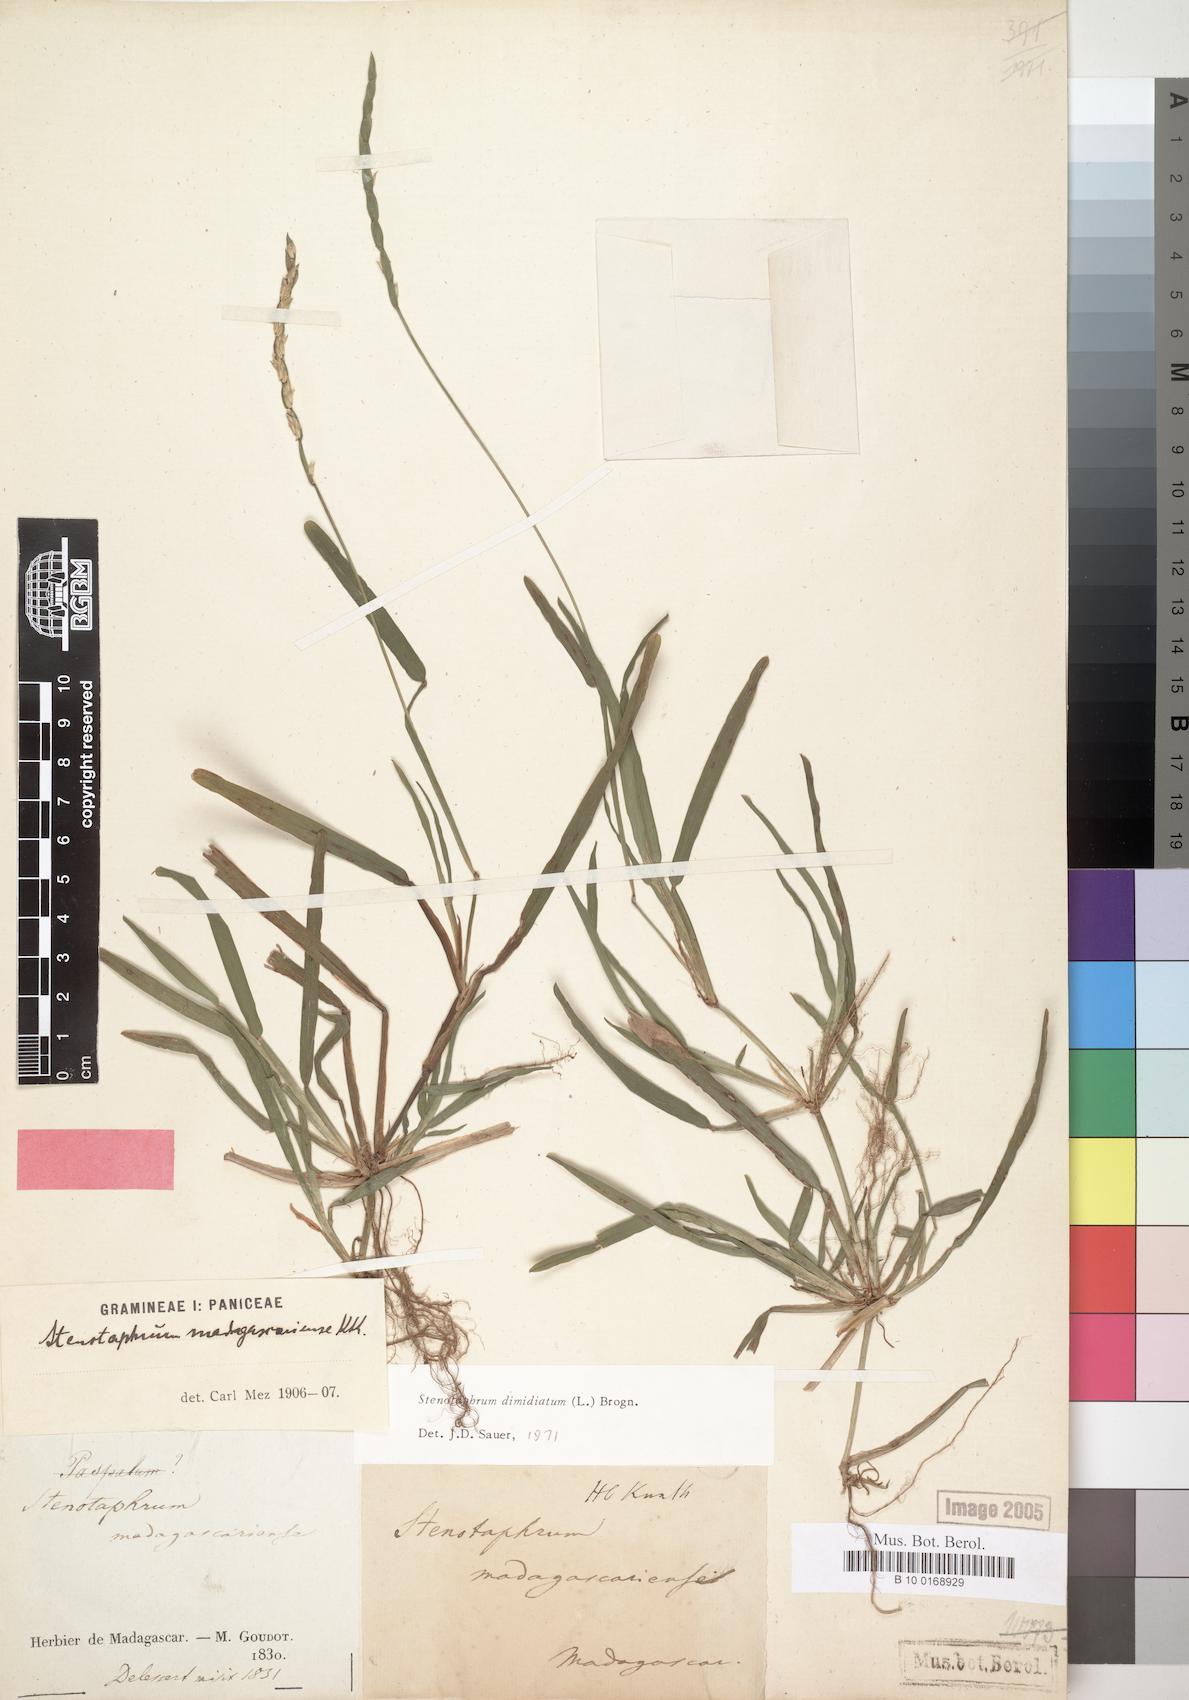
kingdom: Plantae
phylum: Tracheophyta
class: Liliopsida
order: Poales
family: Poaceae
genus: Stenotaphrum
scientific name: Stenotaphrum dimidiatum
